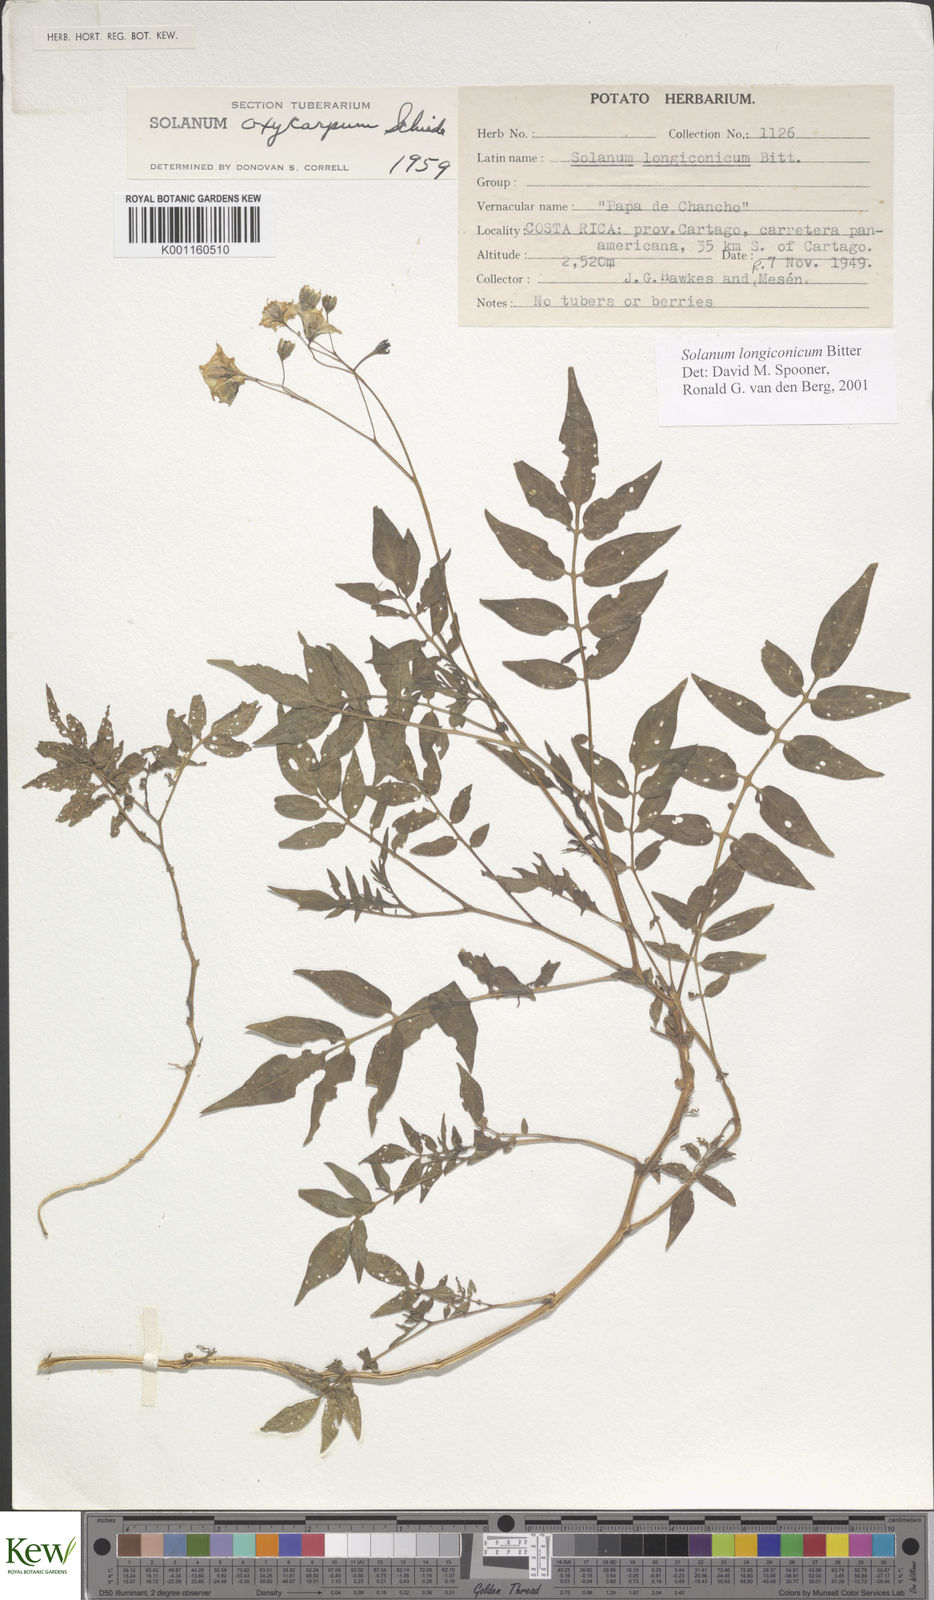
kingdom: Plantae
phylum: Tracheophyta
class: Magnoliopsida
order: Solanales
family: Solanaceae
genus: Solanum
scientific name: Solanum longiconicum
